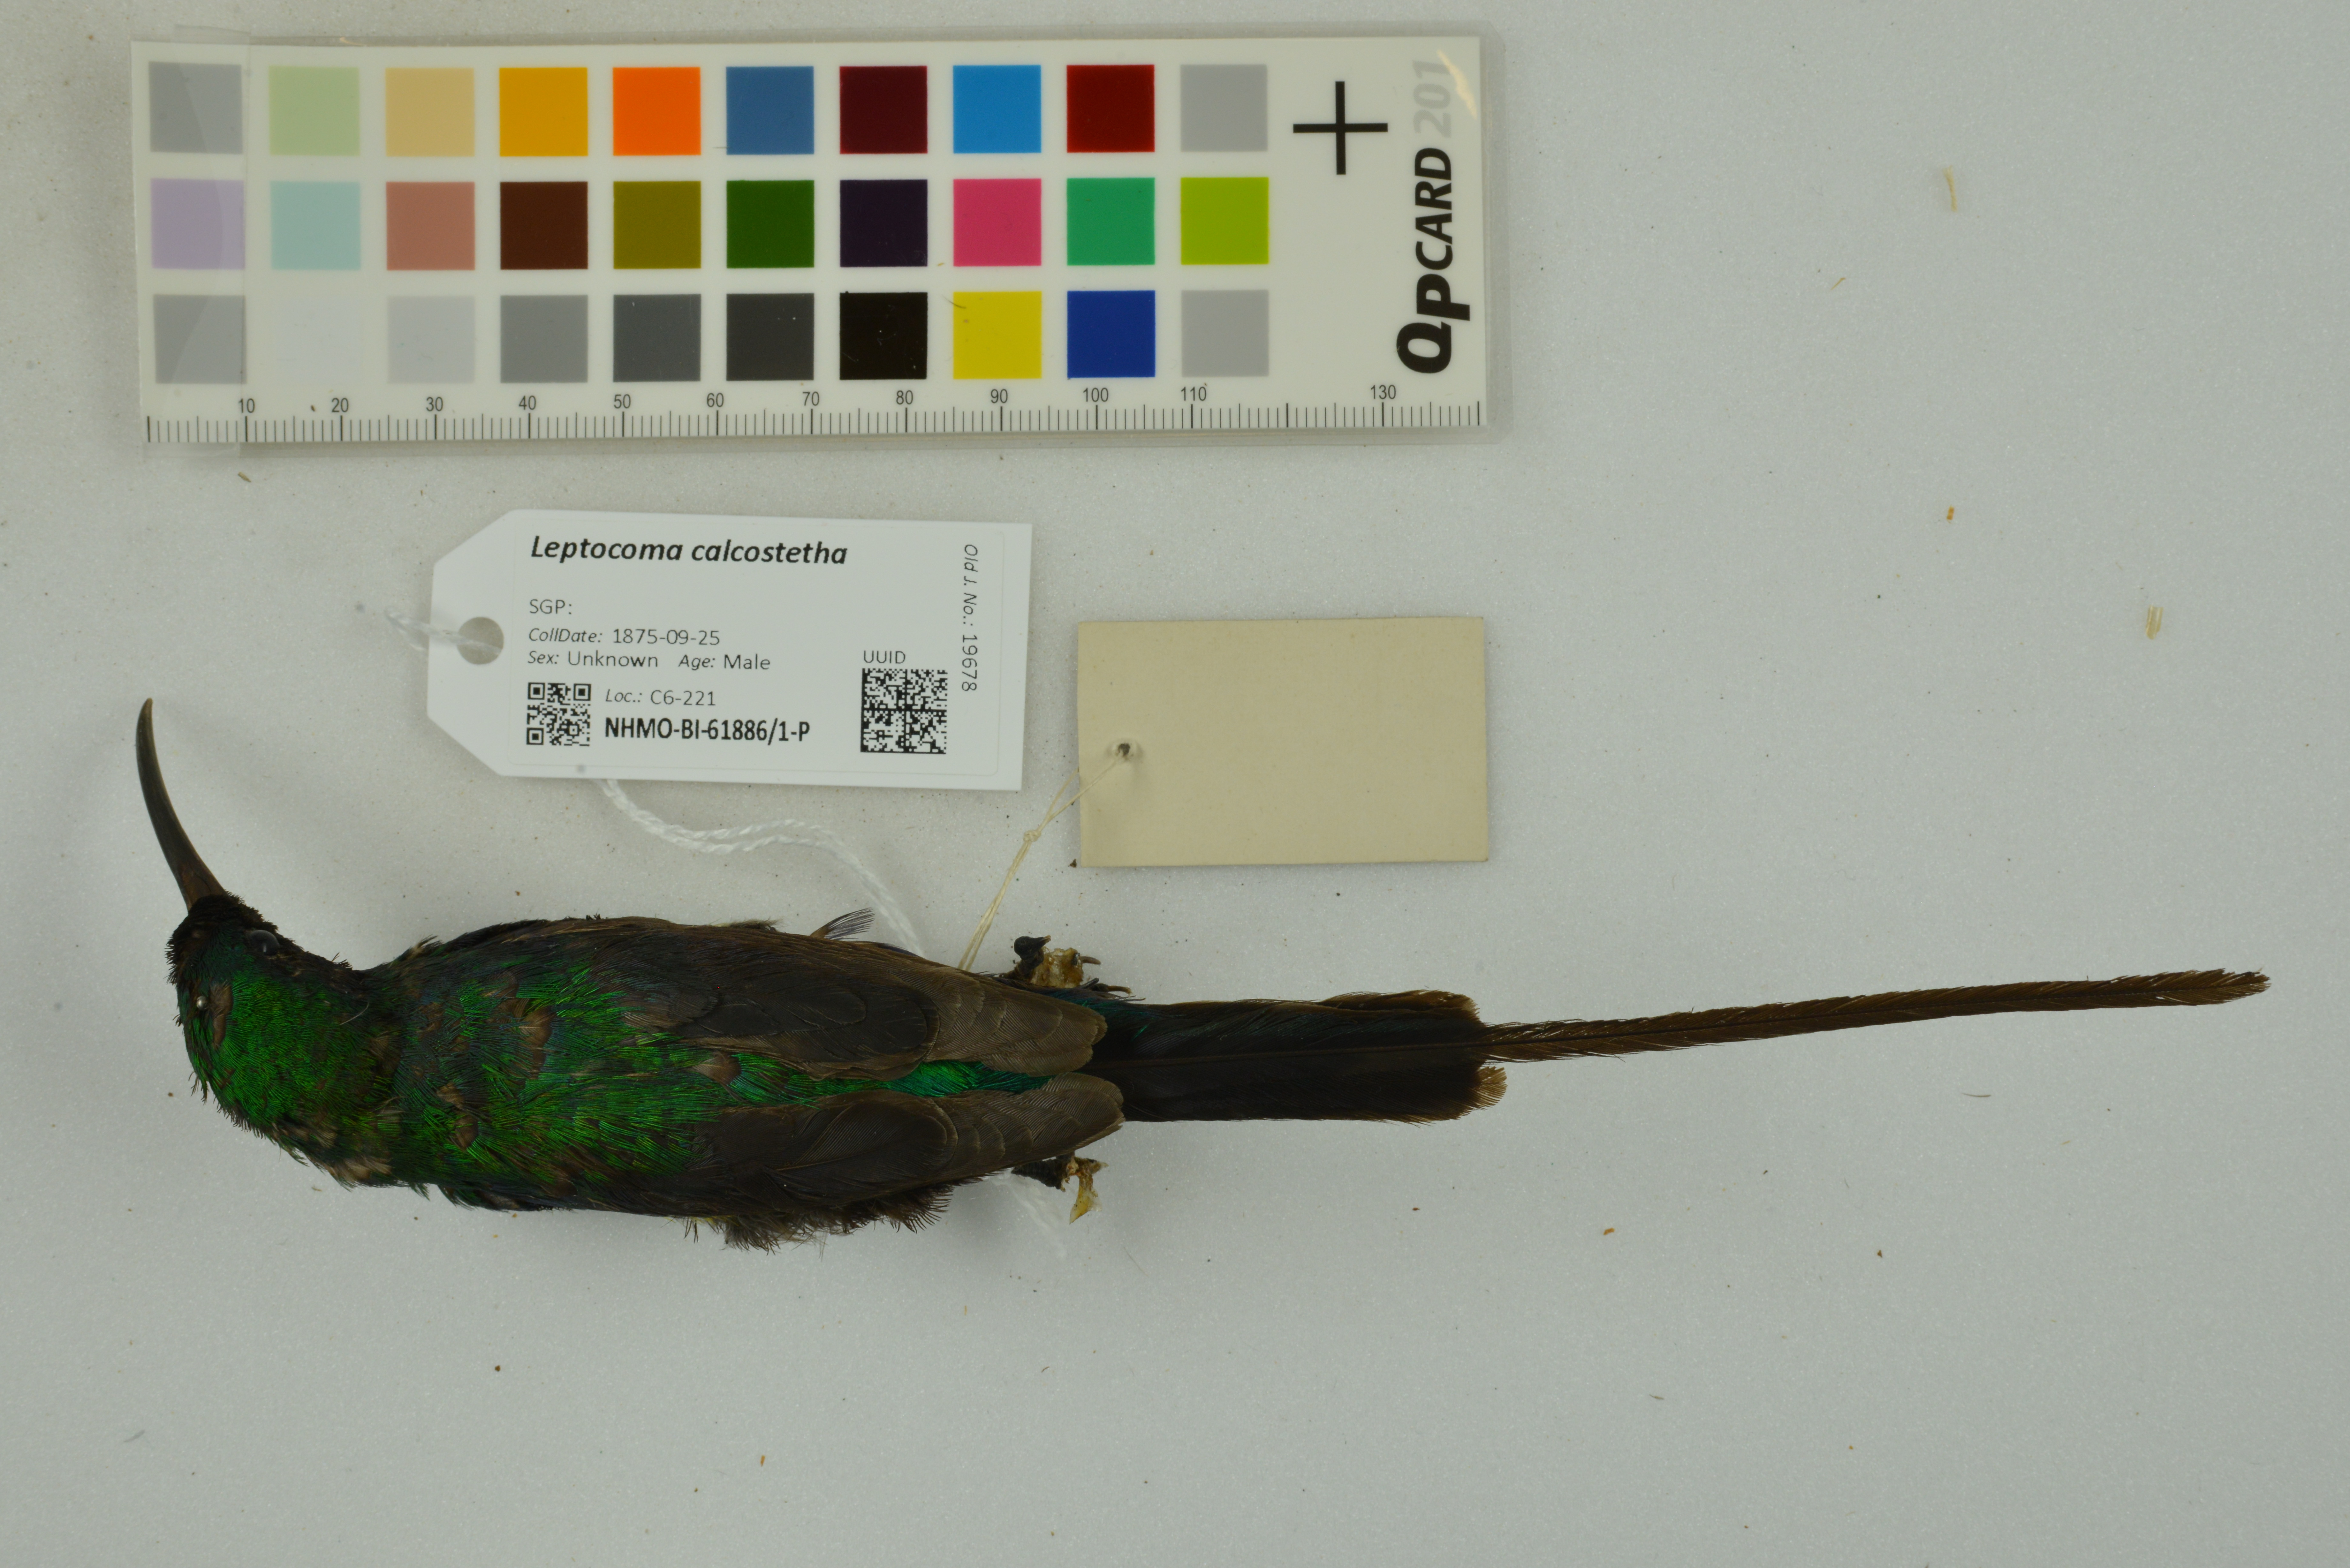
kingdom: Animalia
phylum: Chordata
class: Aves
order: Passeriformes
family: Nectariniidae
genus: Leptocoma
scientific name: Leptocoma calcostetha
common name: Copper-throated sunbird
